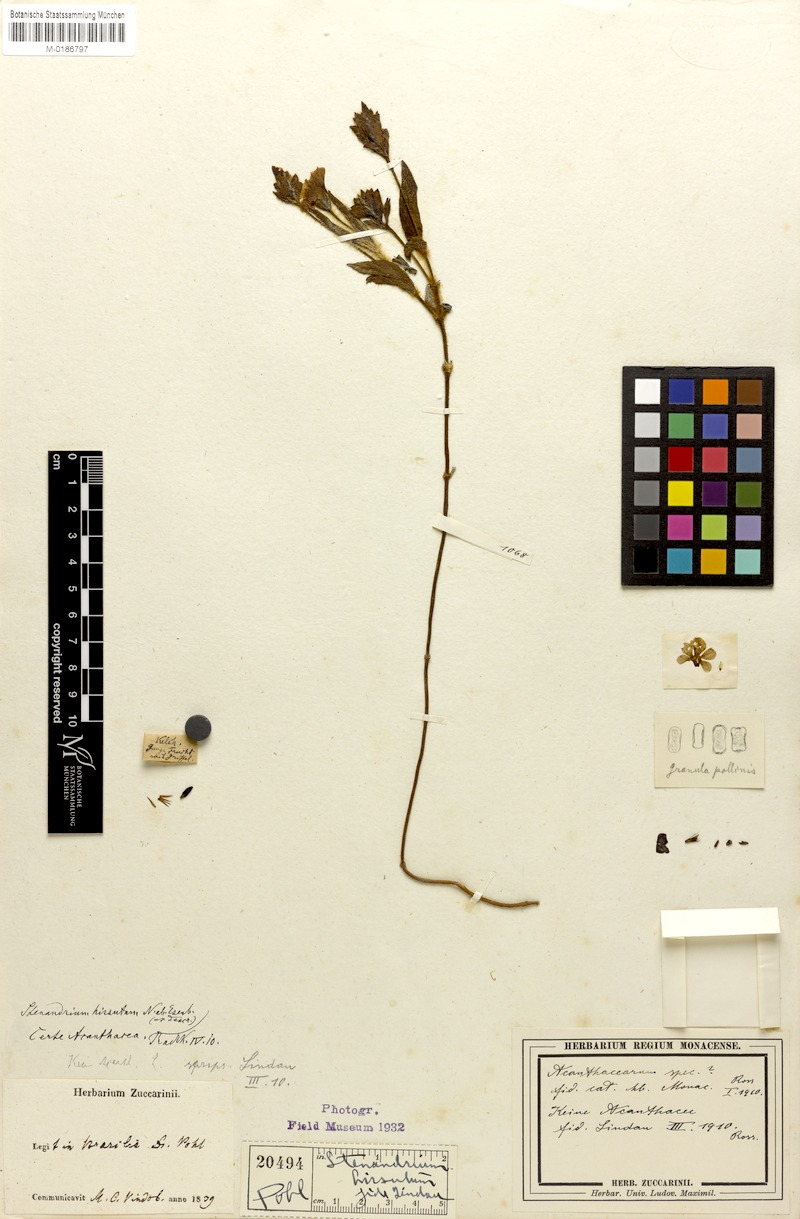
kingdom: Plantae
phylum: Tracheophyta
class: Magnoliopsida
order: Lamiales
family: Acanthaceae
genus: Stenandrium
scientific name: Stenandrium hirsutum
